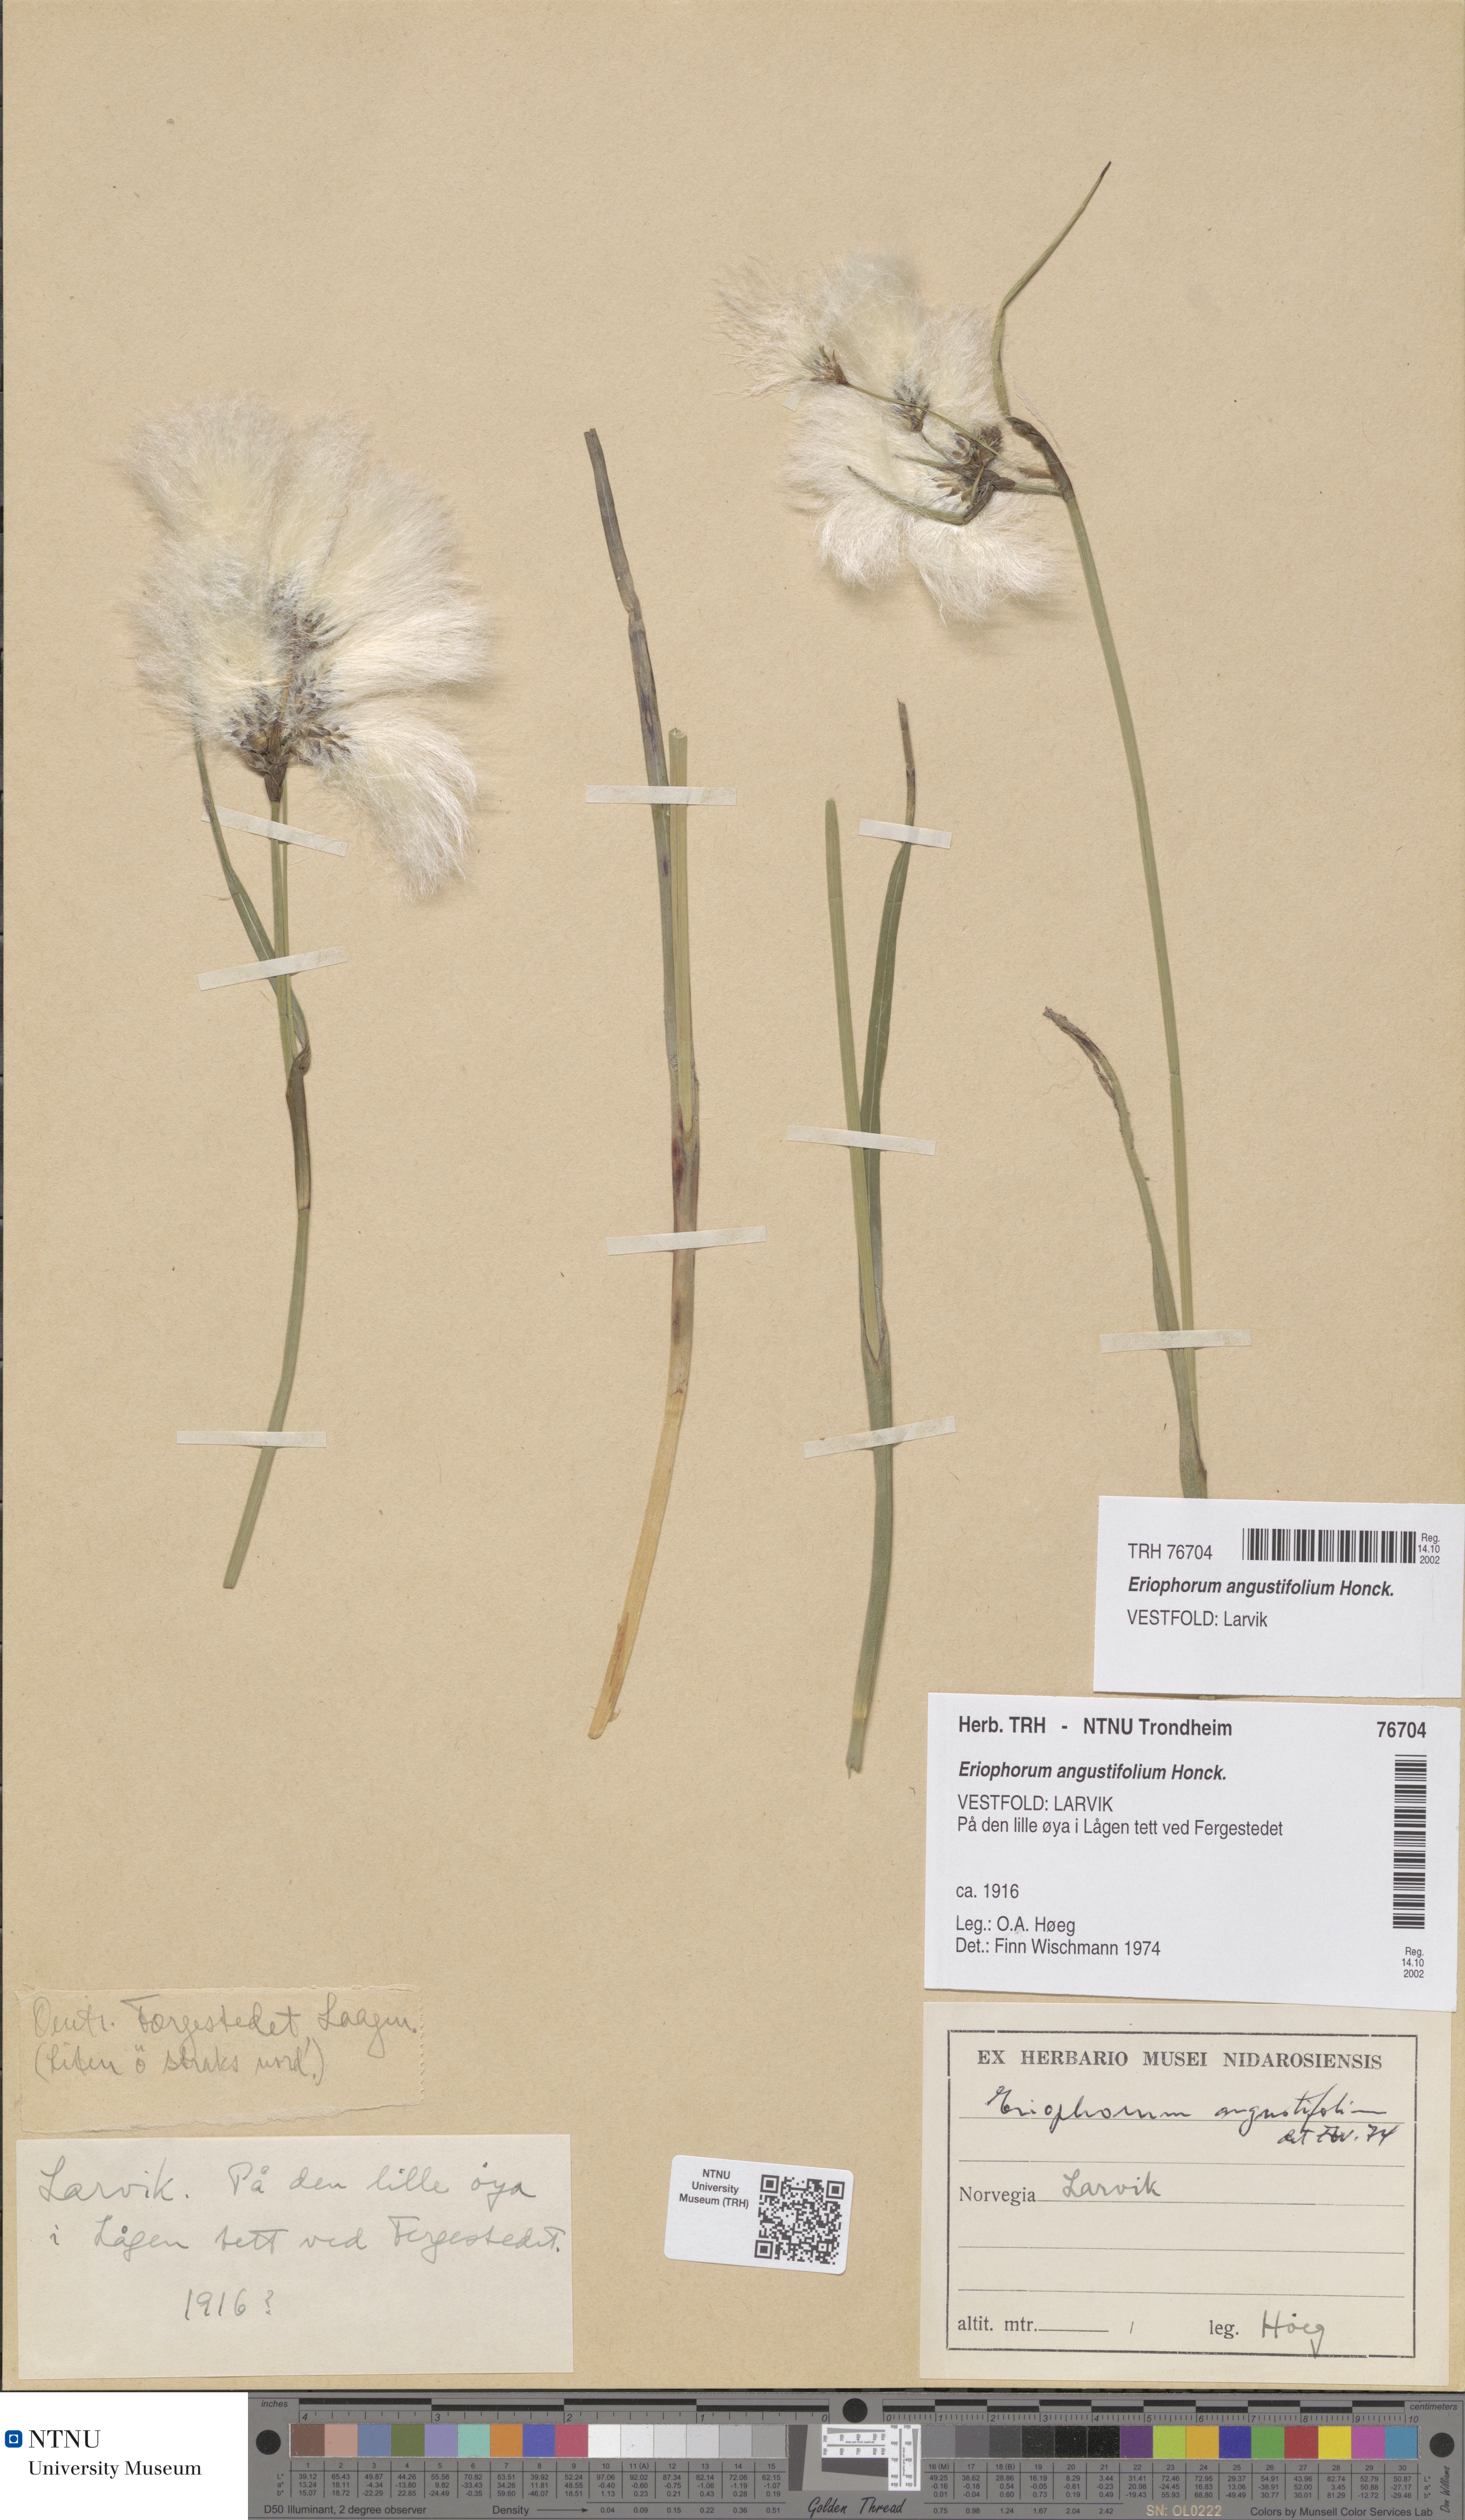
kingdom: Plantae
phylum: Tracheophyta
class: Liliopsida
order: Poales
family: Cyperaceae
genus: Eriophorum
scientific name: Eriophorum angustifolium
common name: Common cottongrass
